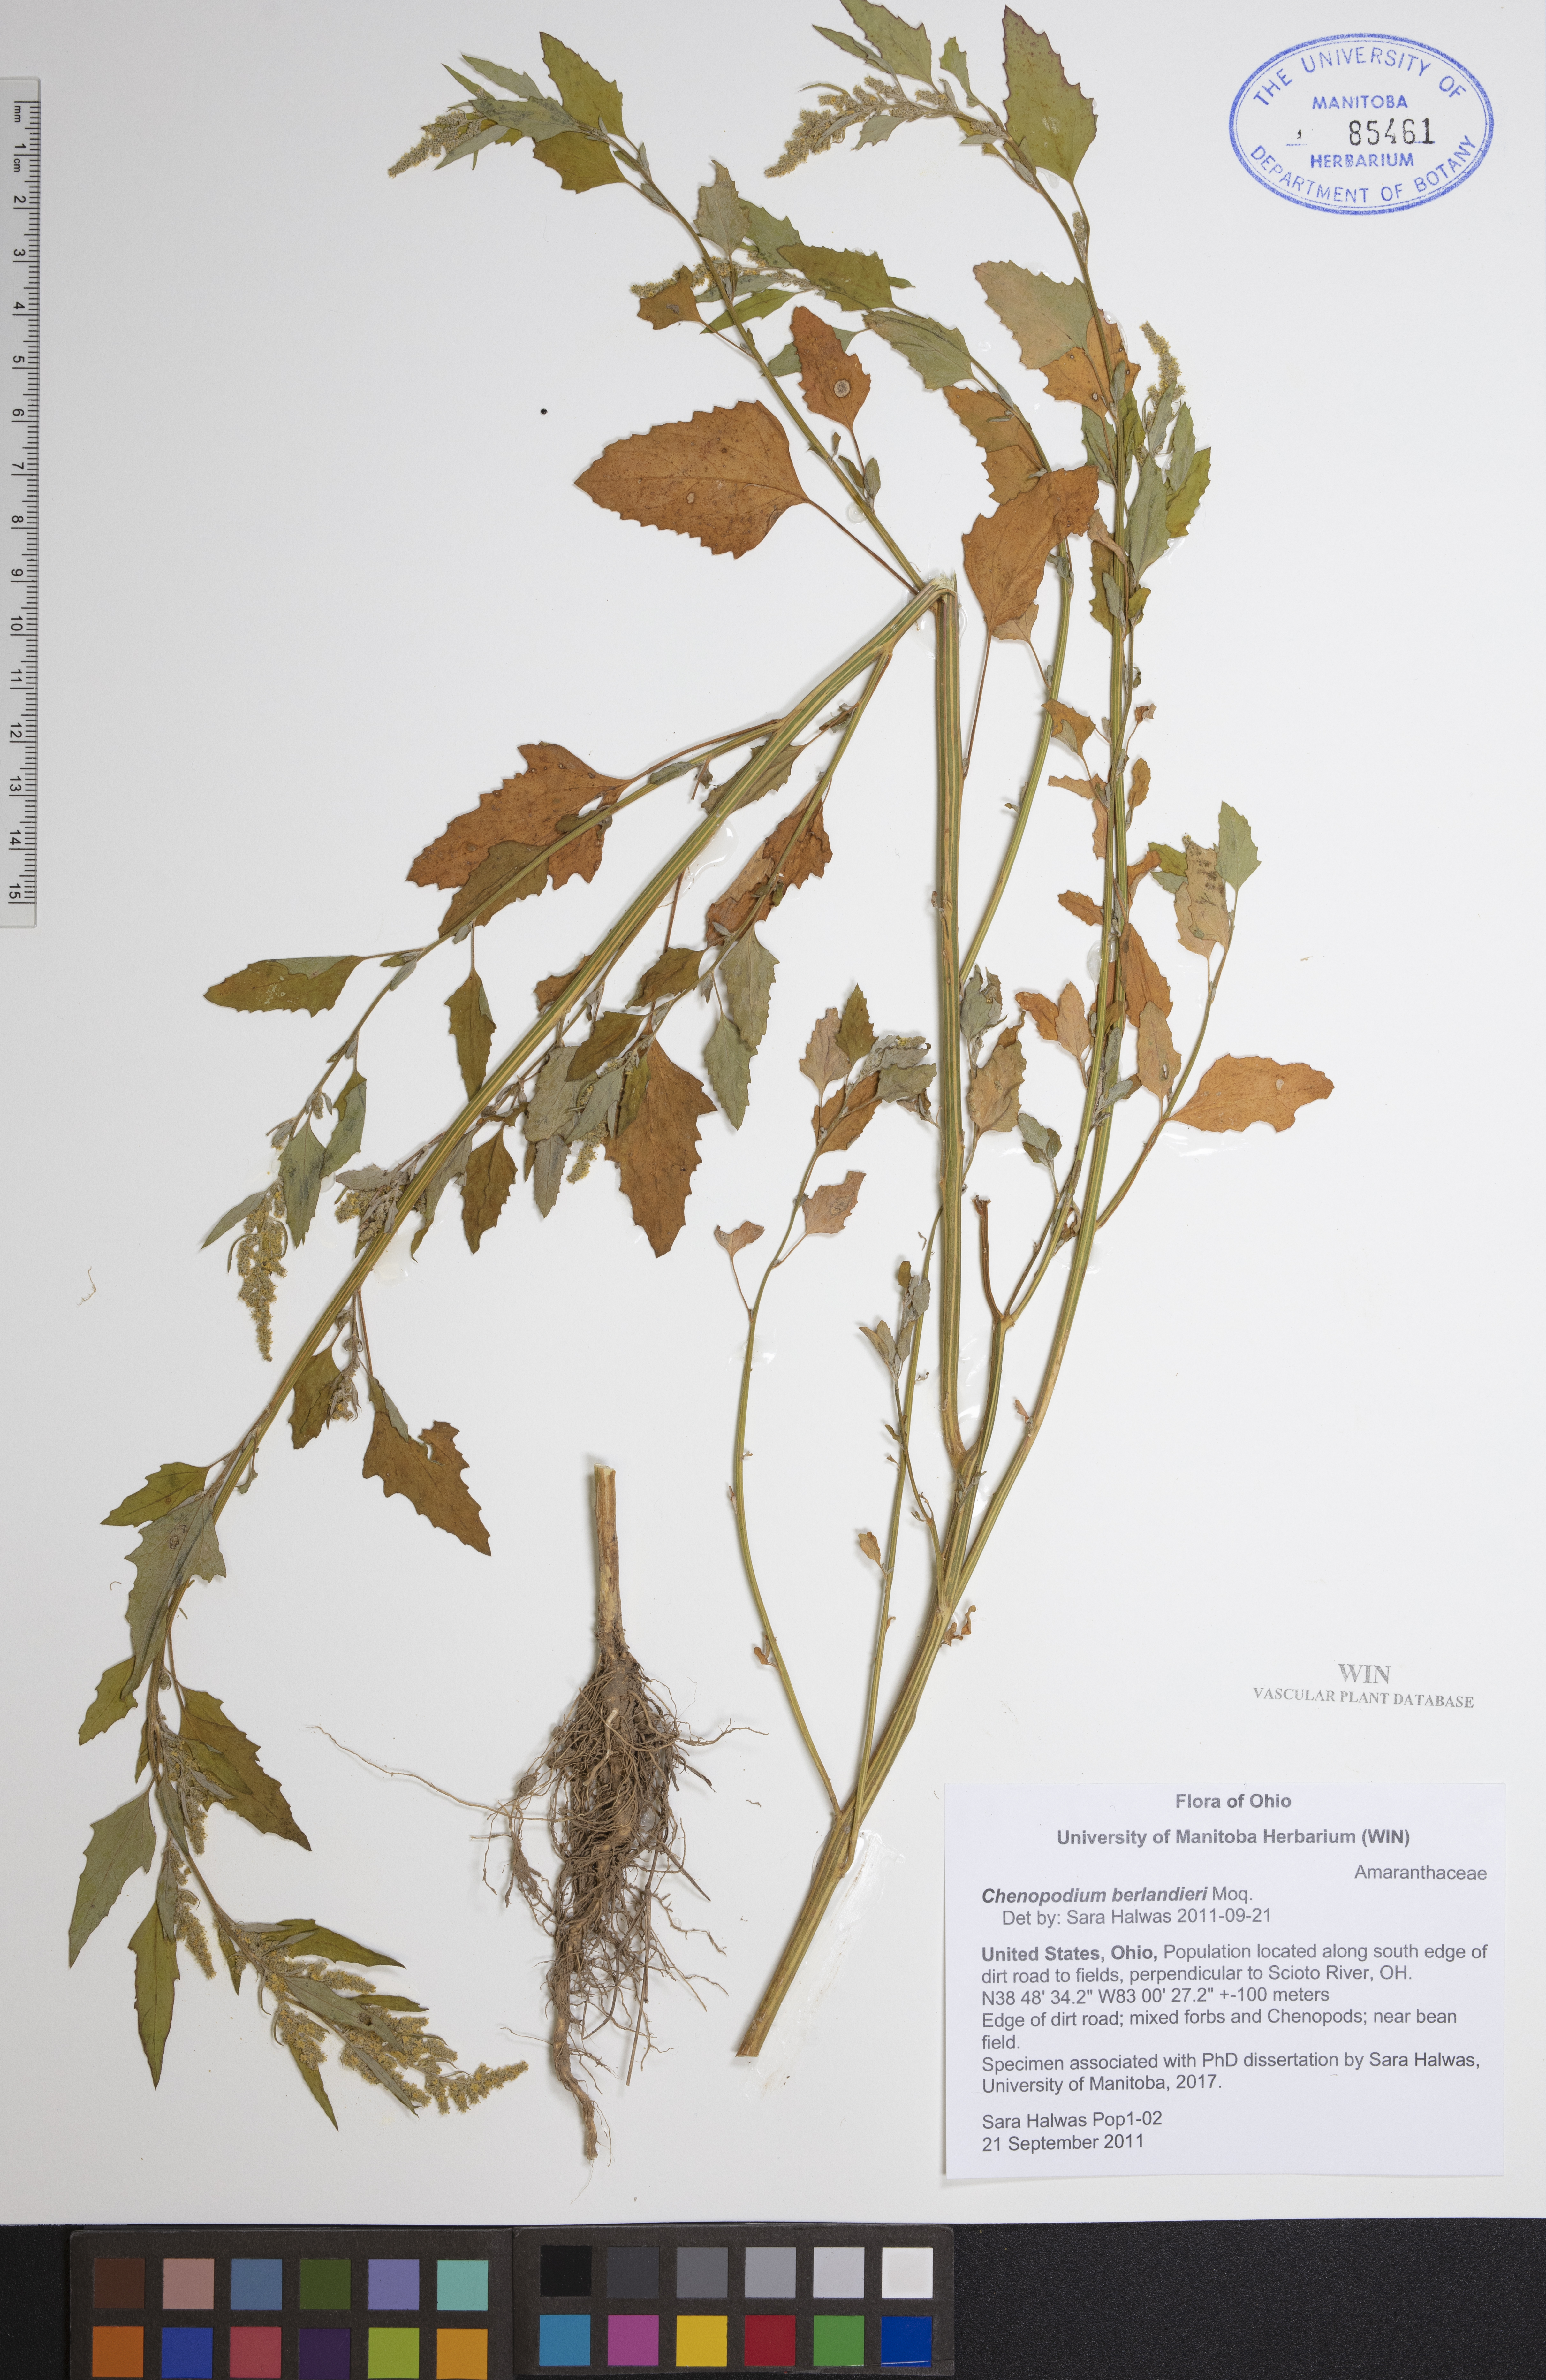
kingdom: Plantae
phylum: Tracheophyta
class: Magnoliopsida
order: Caryophyllales
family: Amaranthaceae
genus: Chenopodium
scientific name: Chenopodium berlandieri
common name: Pit-seed goosefoot
